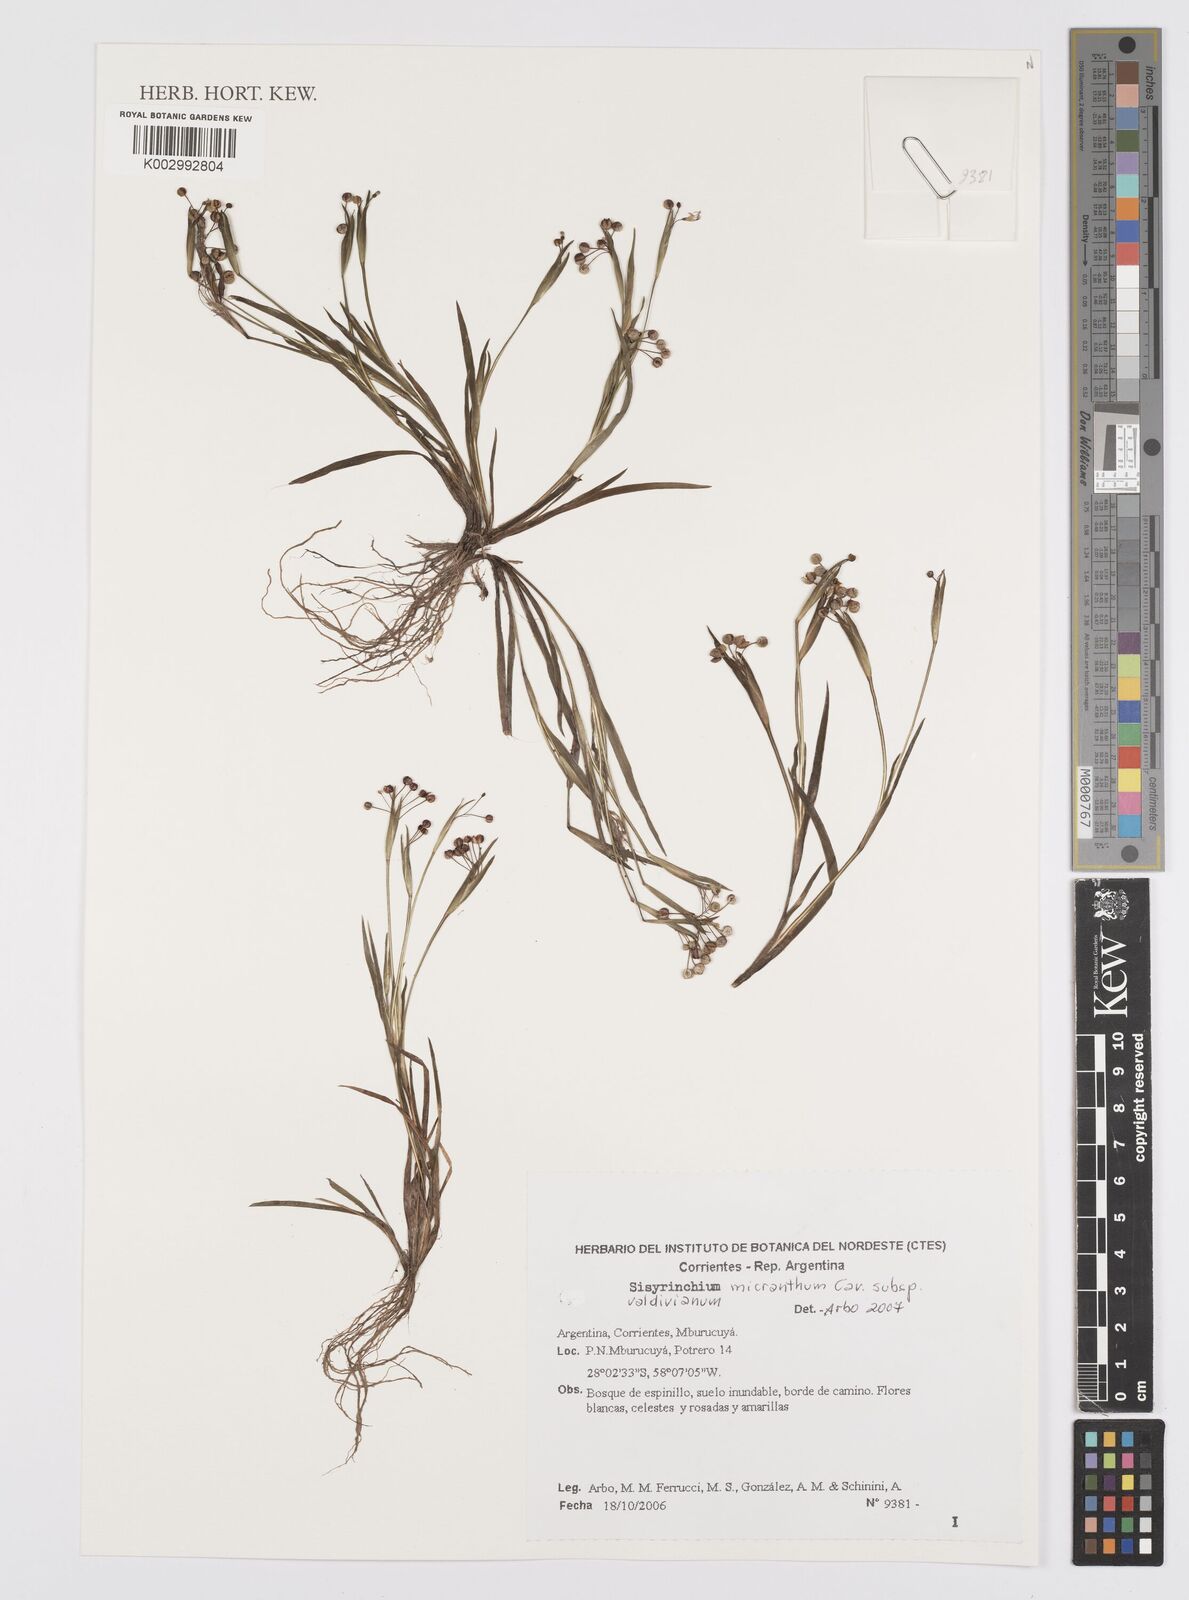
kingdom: Plantae
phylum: Tracheophyta
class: Liliopsida
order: Asparagales
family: Iridaceae
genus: Sisyrinchium
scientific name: Sisyrinchium chilense
